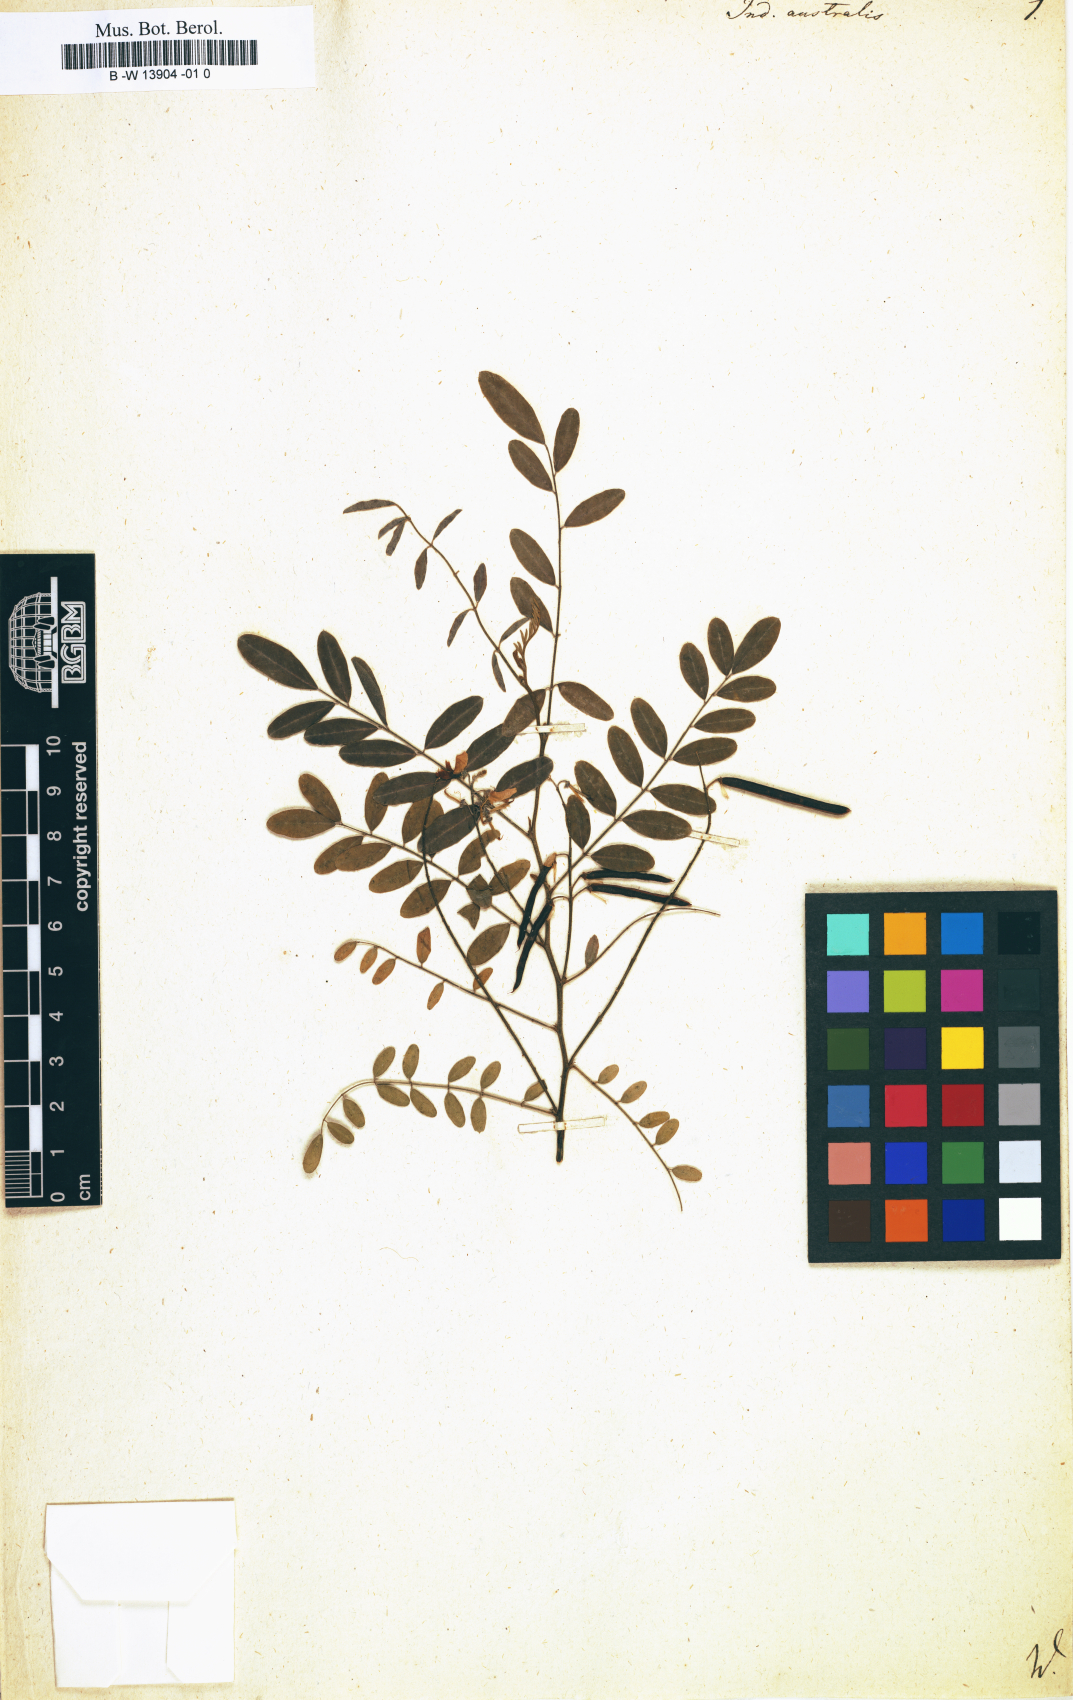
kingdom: Plantae
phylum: Tracheophyta
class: Magnoliopsida
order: Fabales
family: Fabaceae
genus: Indigofera
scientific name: Indigofera australis
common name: Australian indigo
